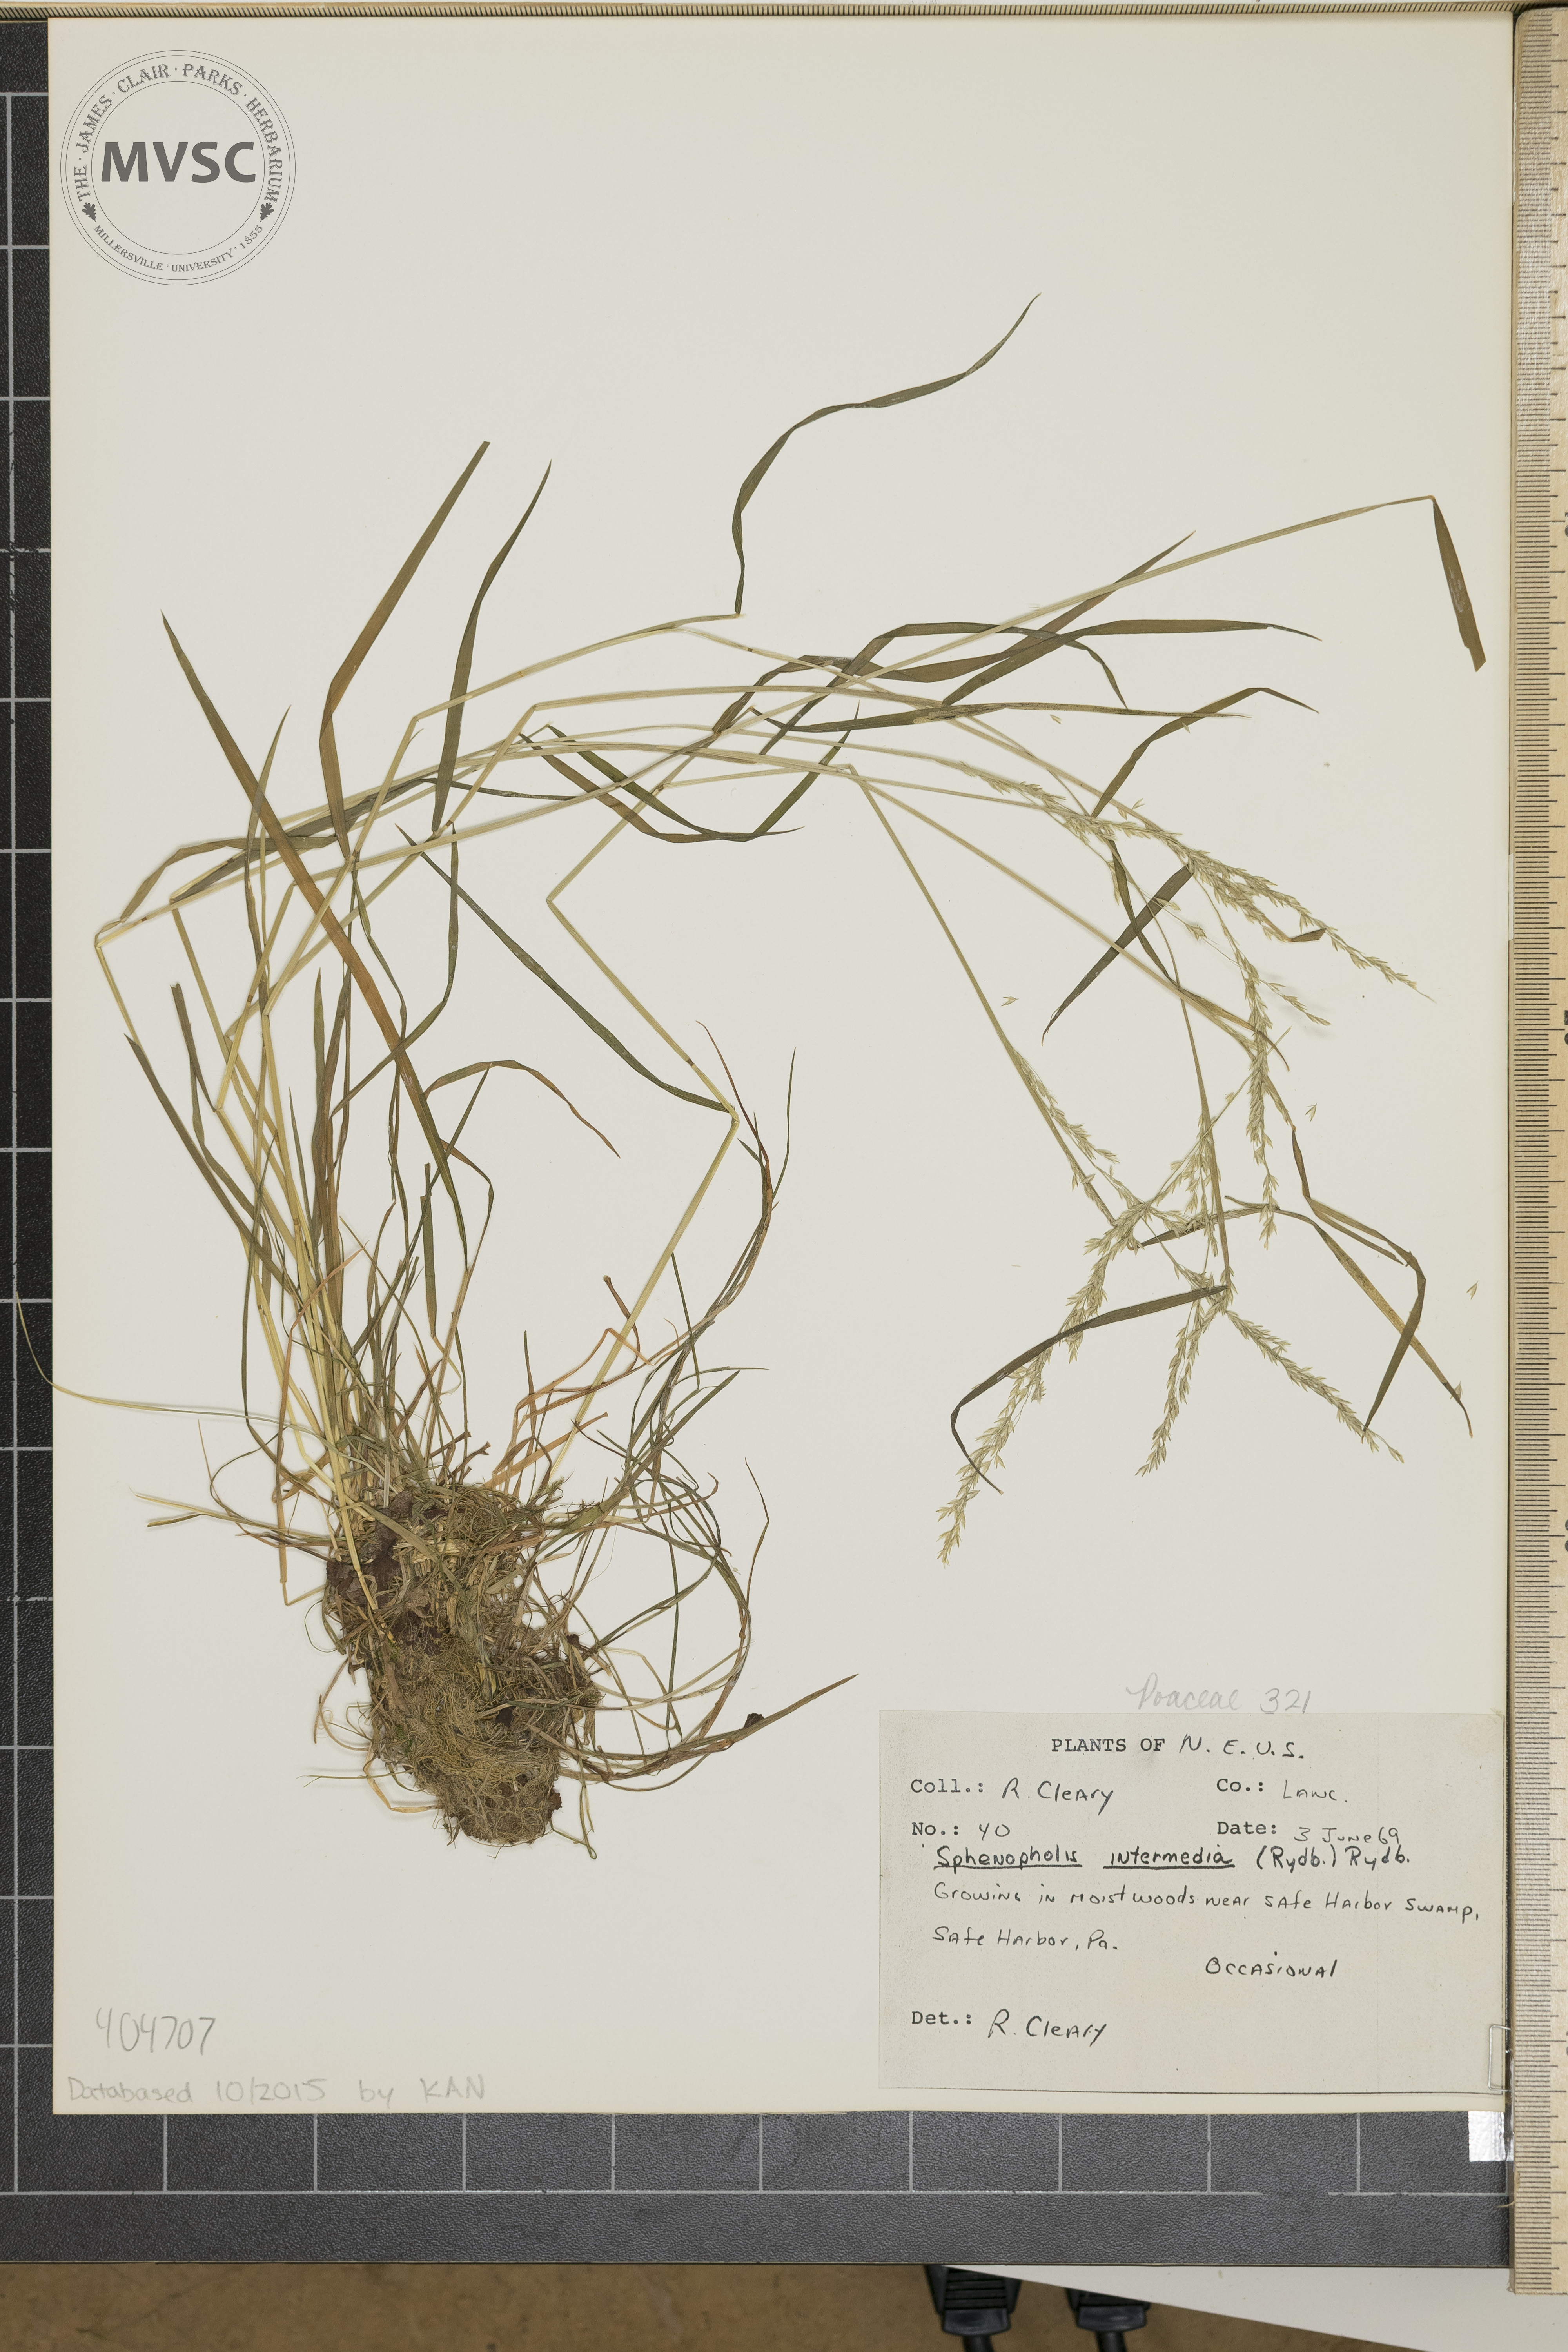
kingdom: Plantae
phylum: Tracheophyta
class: Liliopsida
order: Poales
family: Poaceae
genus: Sphenopholis
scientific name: Sphenopholis intermedia
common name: Intermediate eaton's grass
